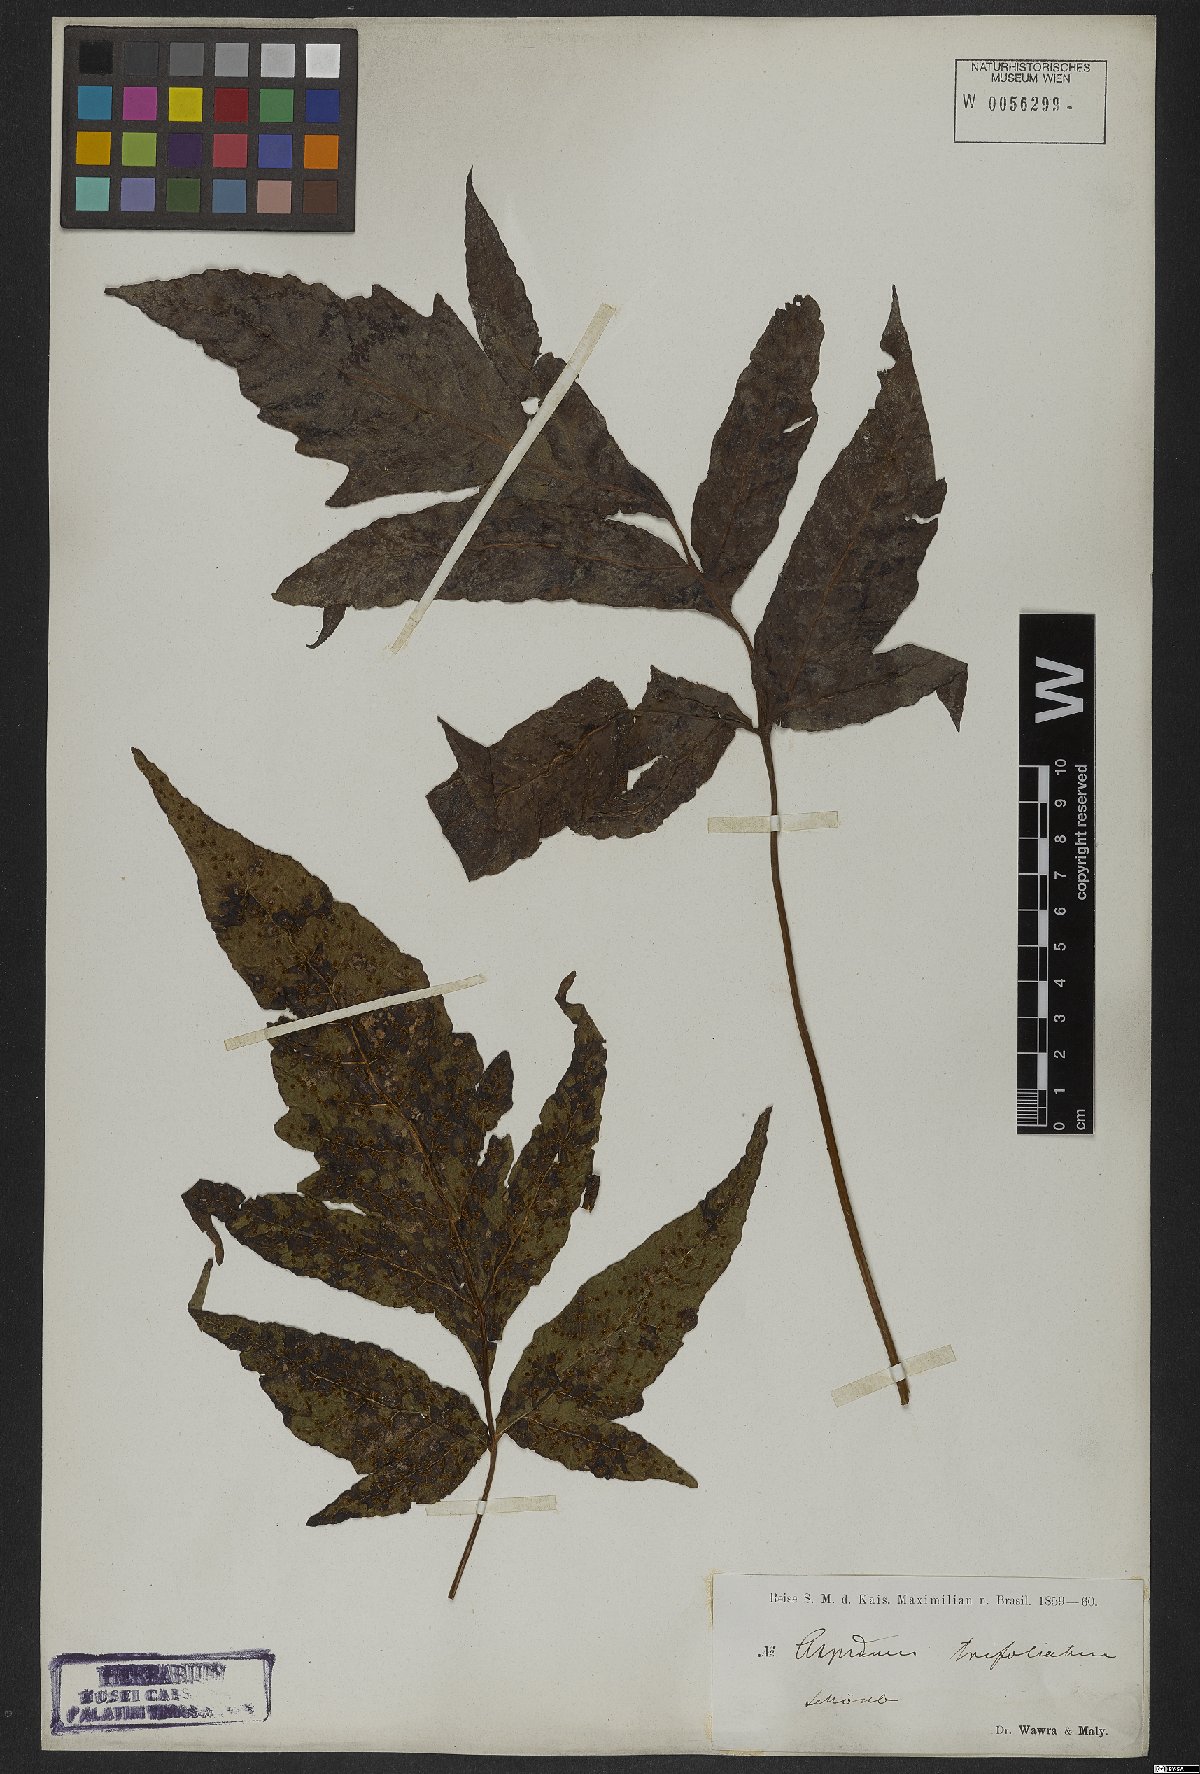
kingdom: Plantae
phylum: Tracheophyta
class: Polypodiopsida
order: Polypodiales
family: Tectariaceae
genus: Tectaria
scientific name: Tectaria trifoliata
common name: Threeleaf halberd fern
